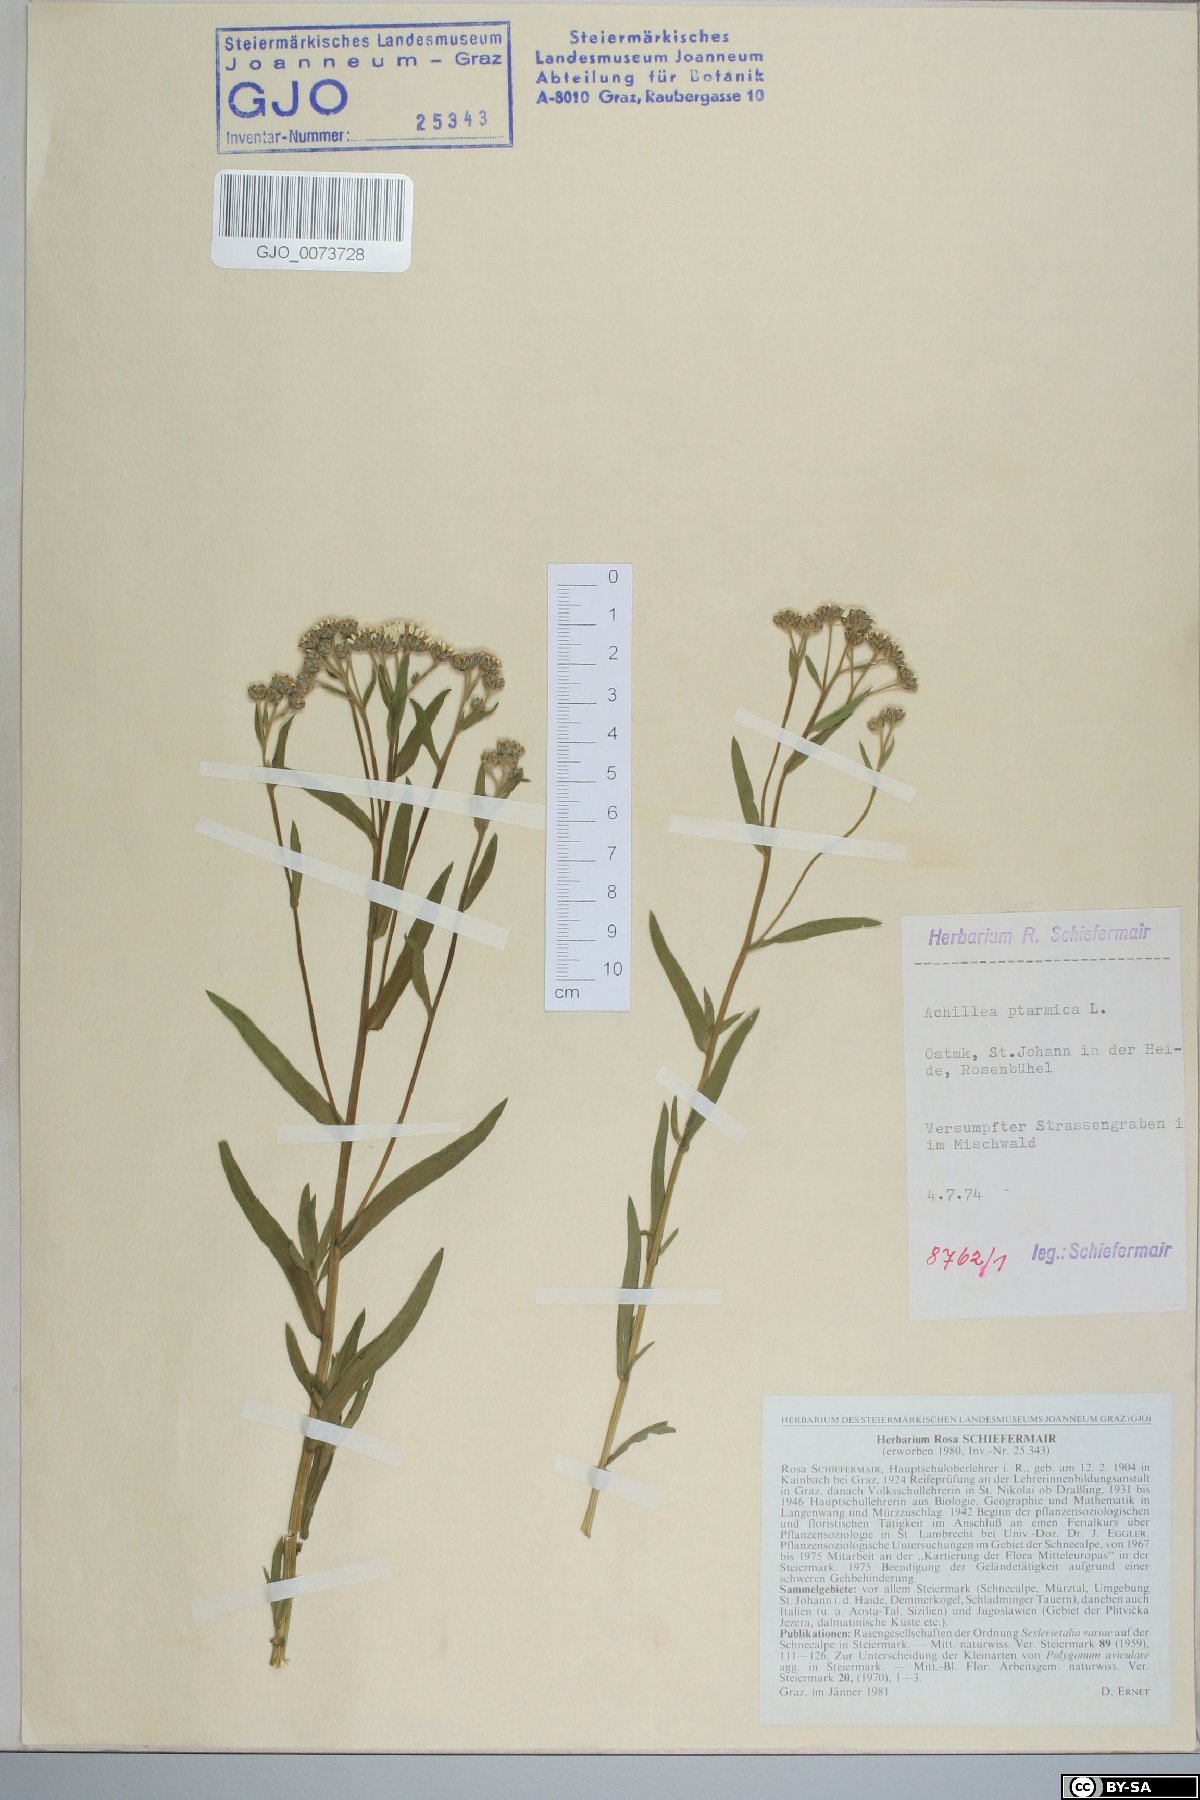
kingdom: Plantae
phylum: Tracheophyta
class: Magnoliopsida
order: Asterales
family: Asteraceae
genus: Achillea
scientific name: Achillea ptarmica
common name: Sneezeweed
